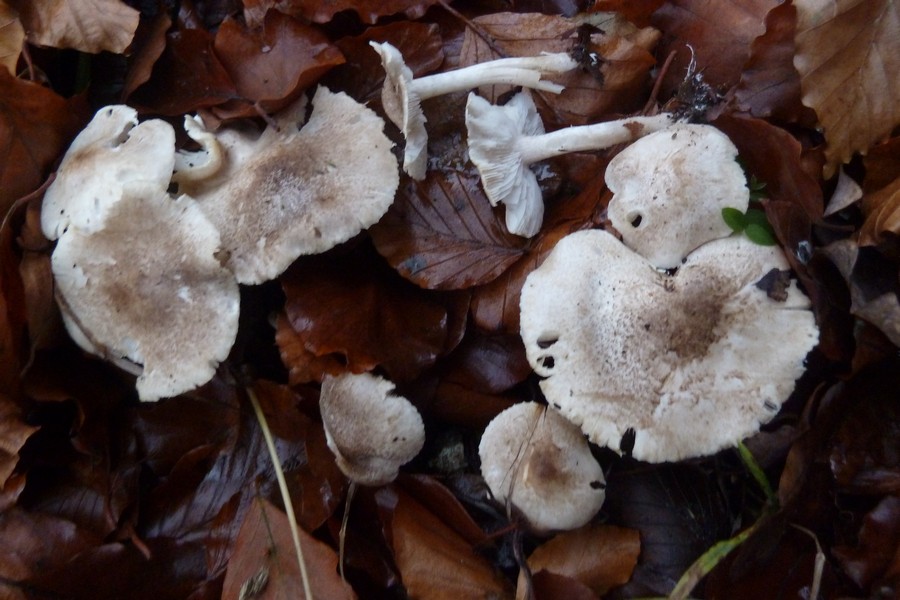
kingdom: Fungi
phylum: Basidiomycota
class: Agaricomycetes
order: Agaricales
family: Tricholomataceae
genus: Tricholoma
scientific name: Tricholoma scalpturatum
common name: gulplettet ridderhat
